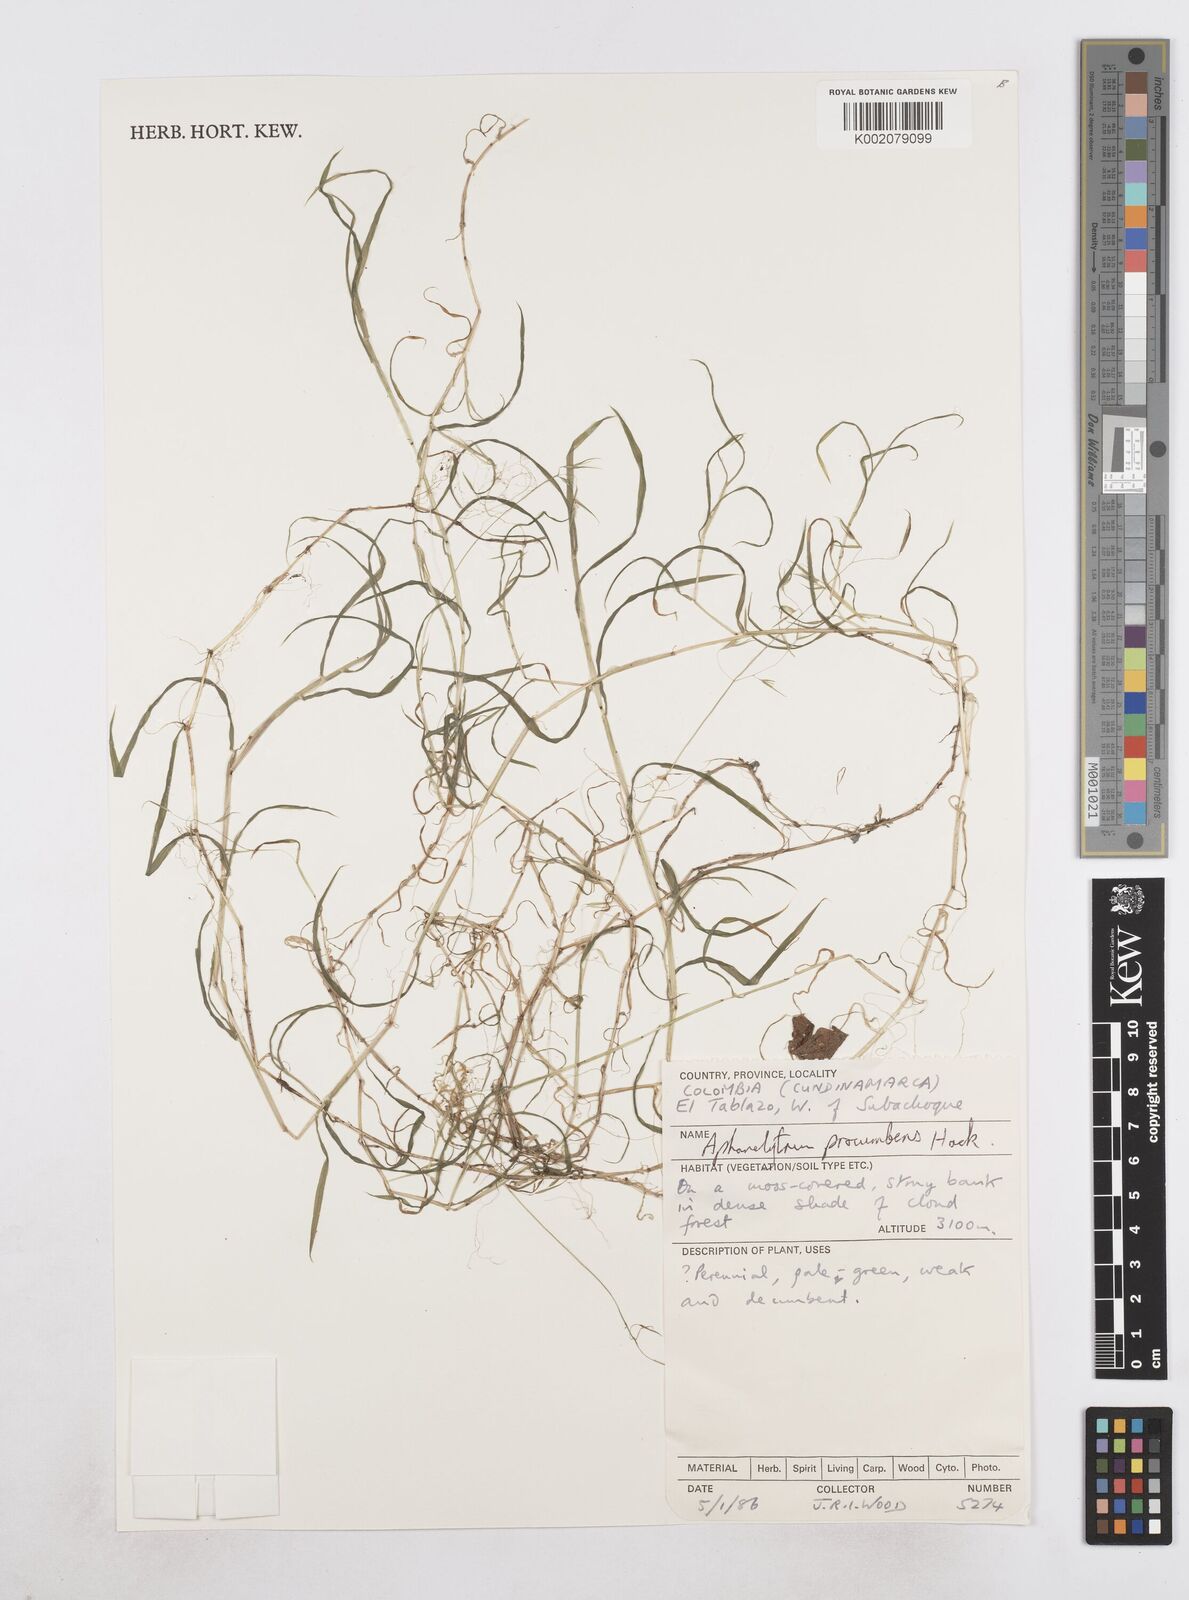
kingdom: Plantae
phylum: Tracheophyta
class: Liliopsida
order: Poales
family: Poaceae
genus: Poa
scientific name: Poa hitchcockiana
